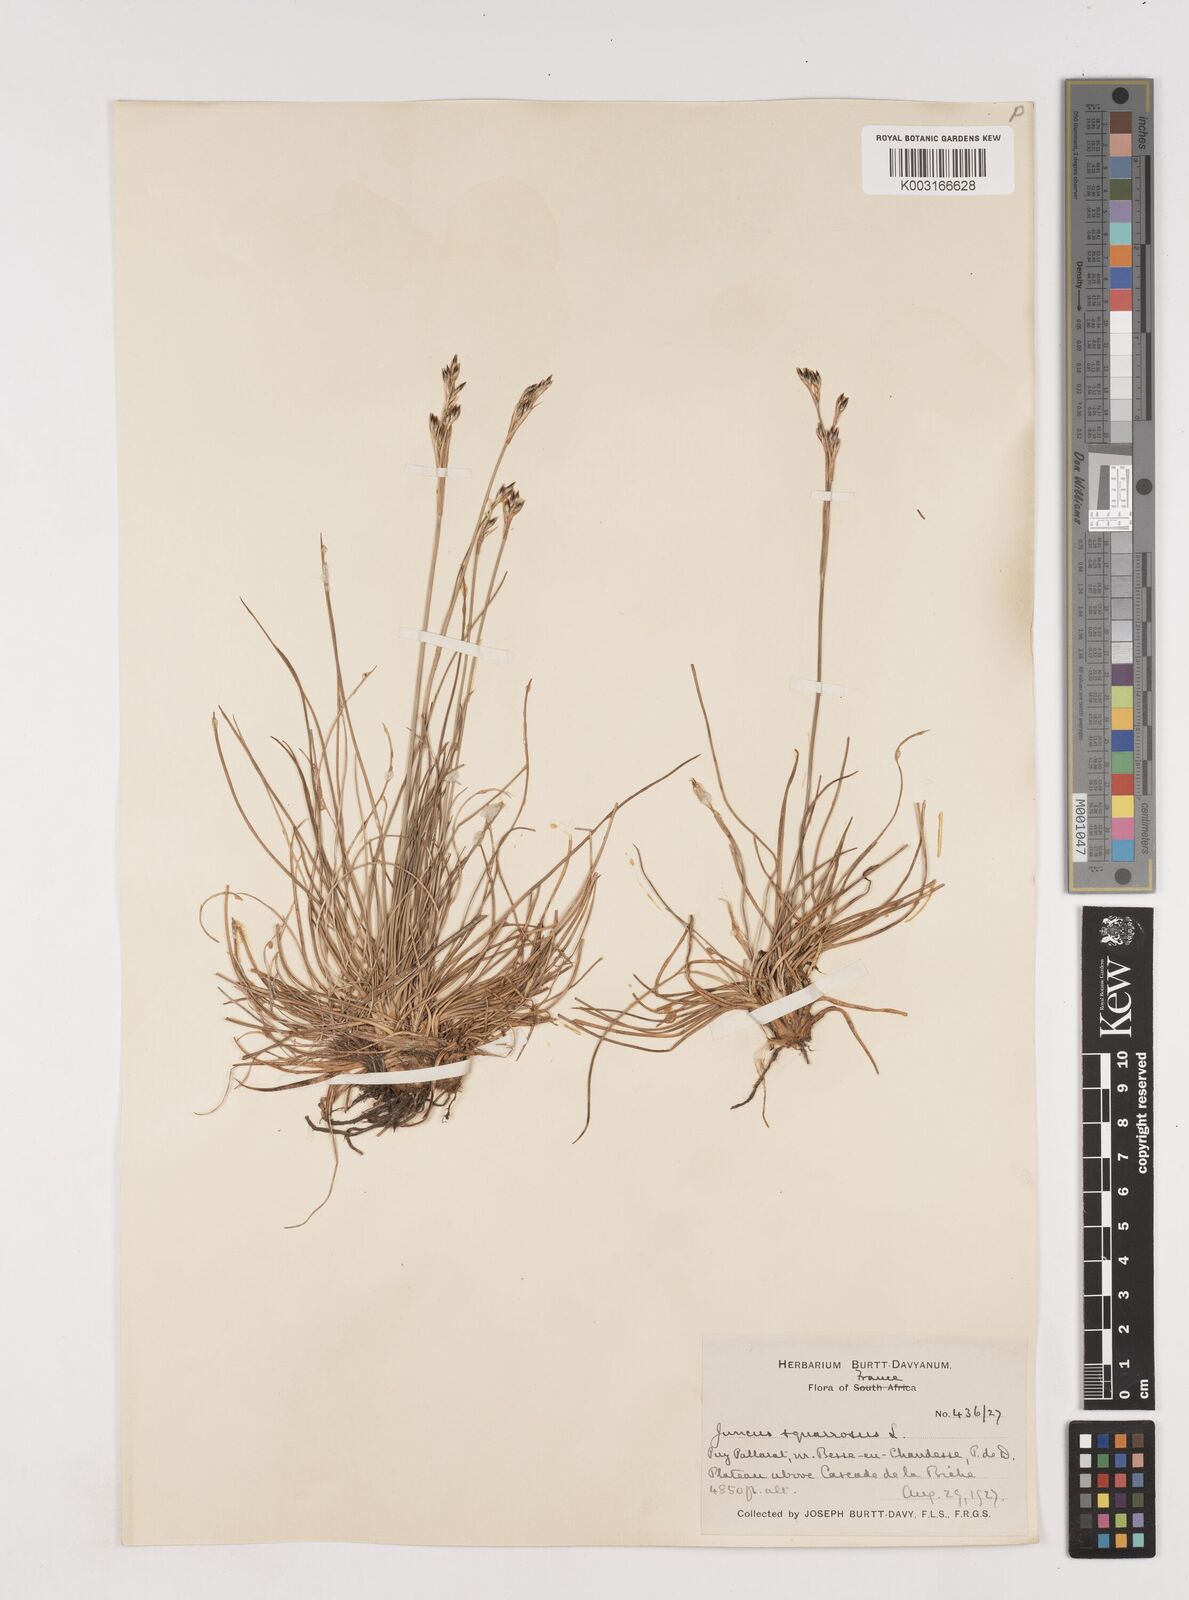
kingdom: Plantae
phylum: Tracheophyta
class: Liliopsida
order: Poales
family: Juncaceae
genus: Juncus
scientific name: Juncus squarrosus
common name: Heath rush
